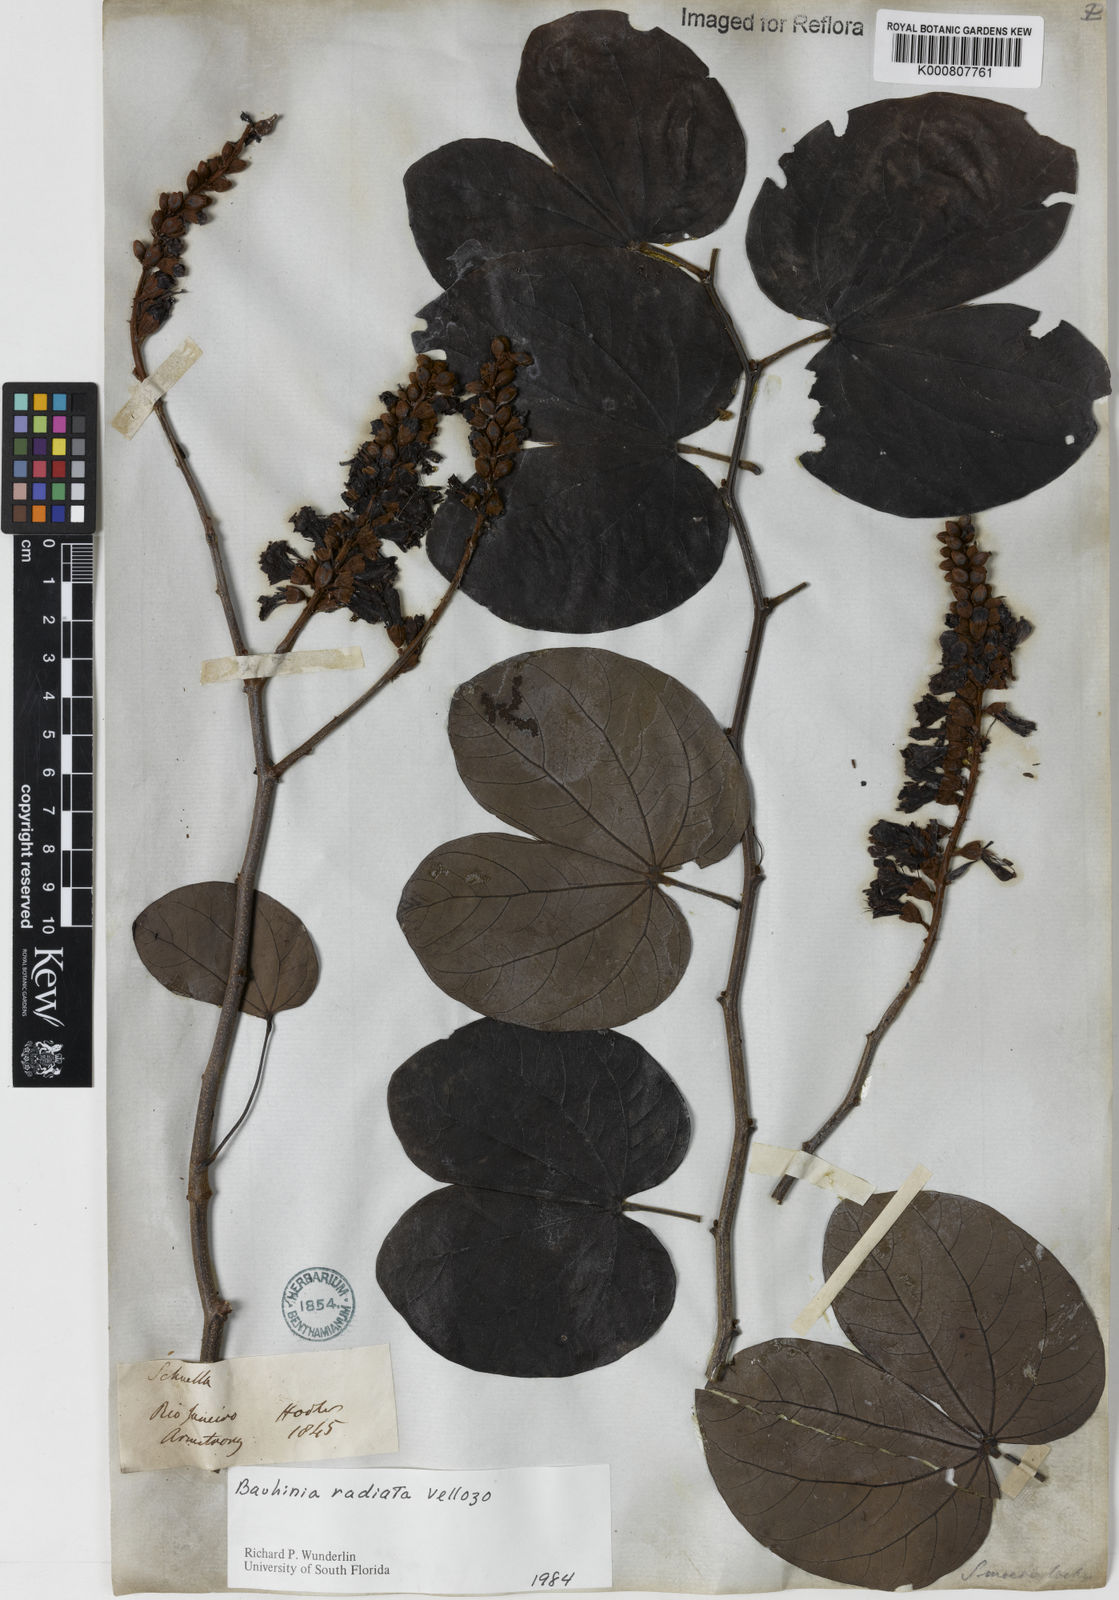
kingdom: Plantae
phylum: Tracheophyta
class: Magnoliopsida
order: Fabales
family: Fabaceae
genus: Schnella
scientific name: Schnella macrostachya
